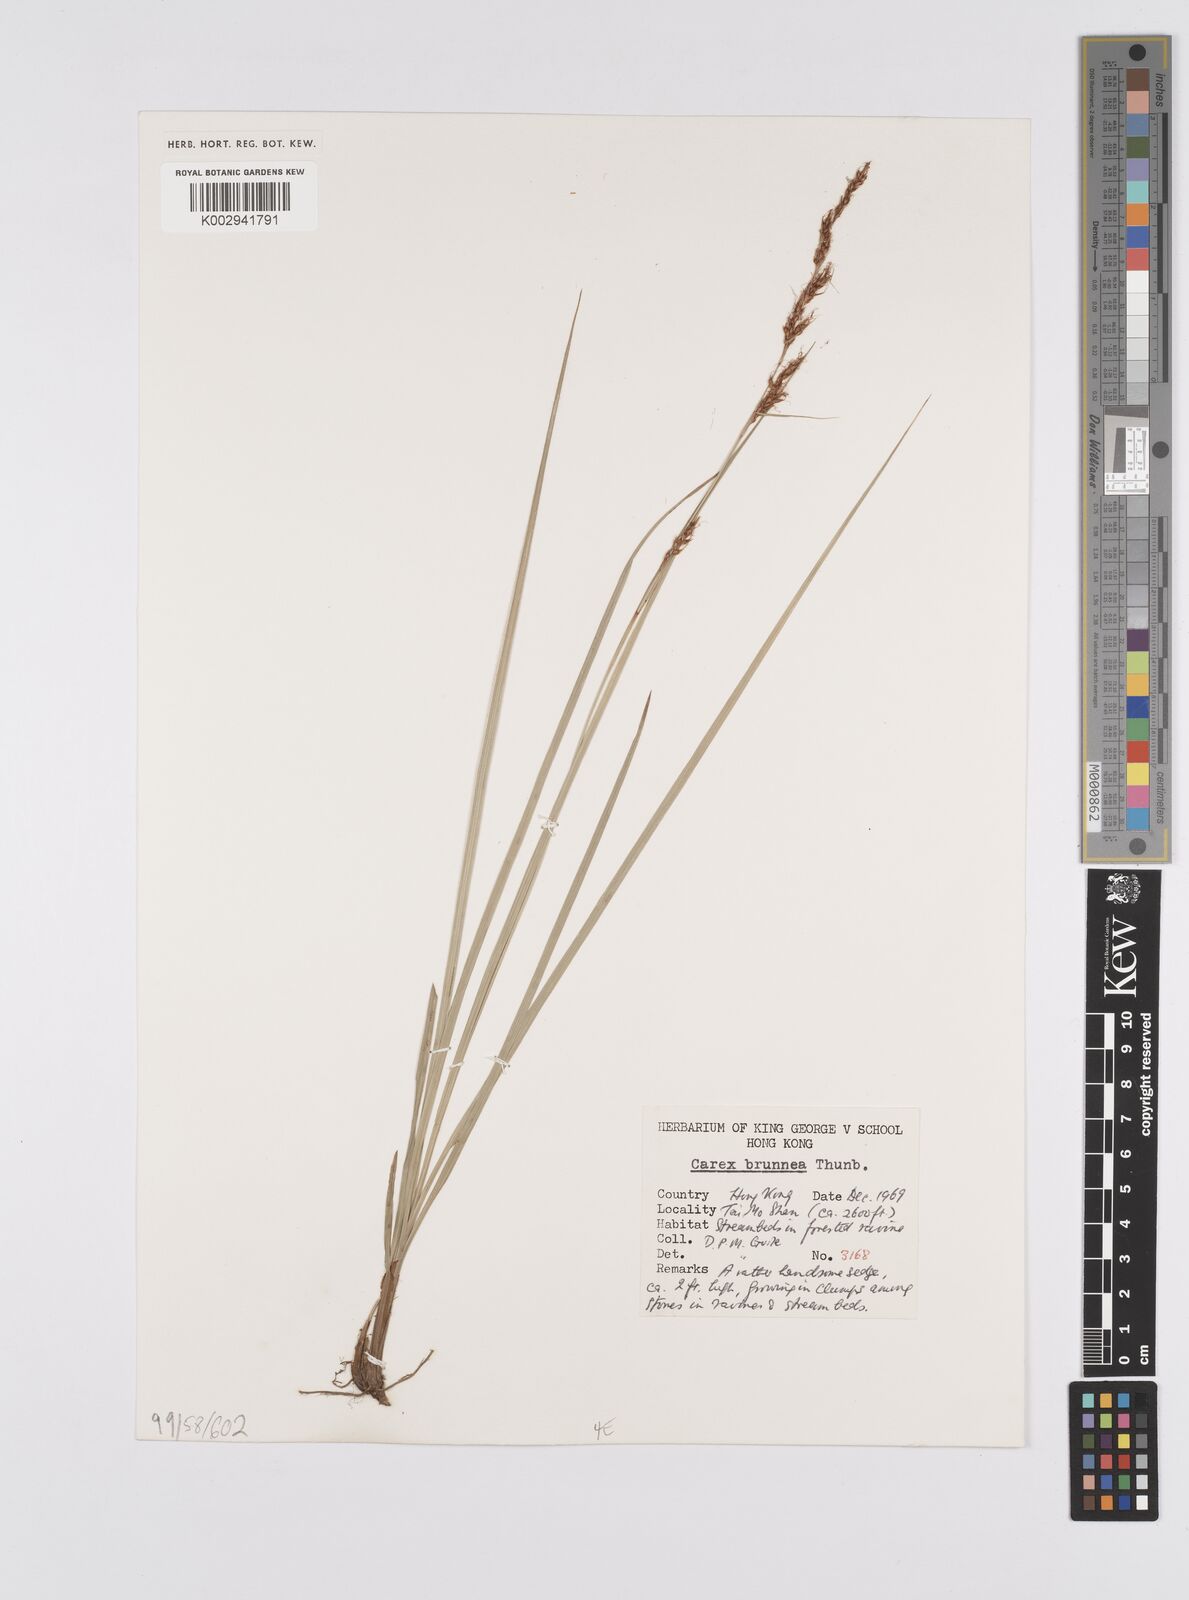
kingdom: Plantae
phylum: Tracheophyta
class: Liliopsida
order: Poales
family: Cyperaceae
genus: Carex
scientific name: Carex brunnea
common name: Greater brown sedge
